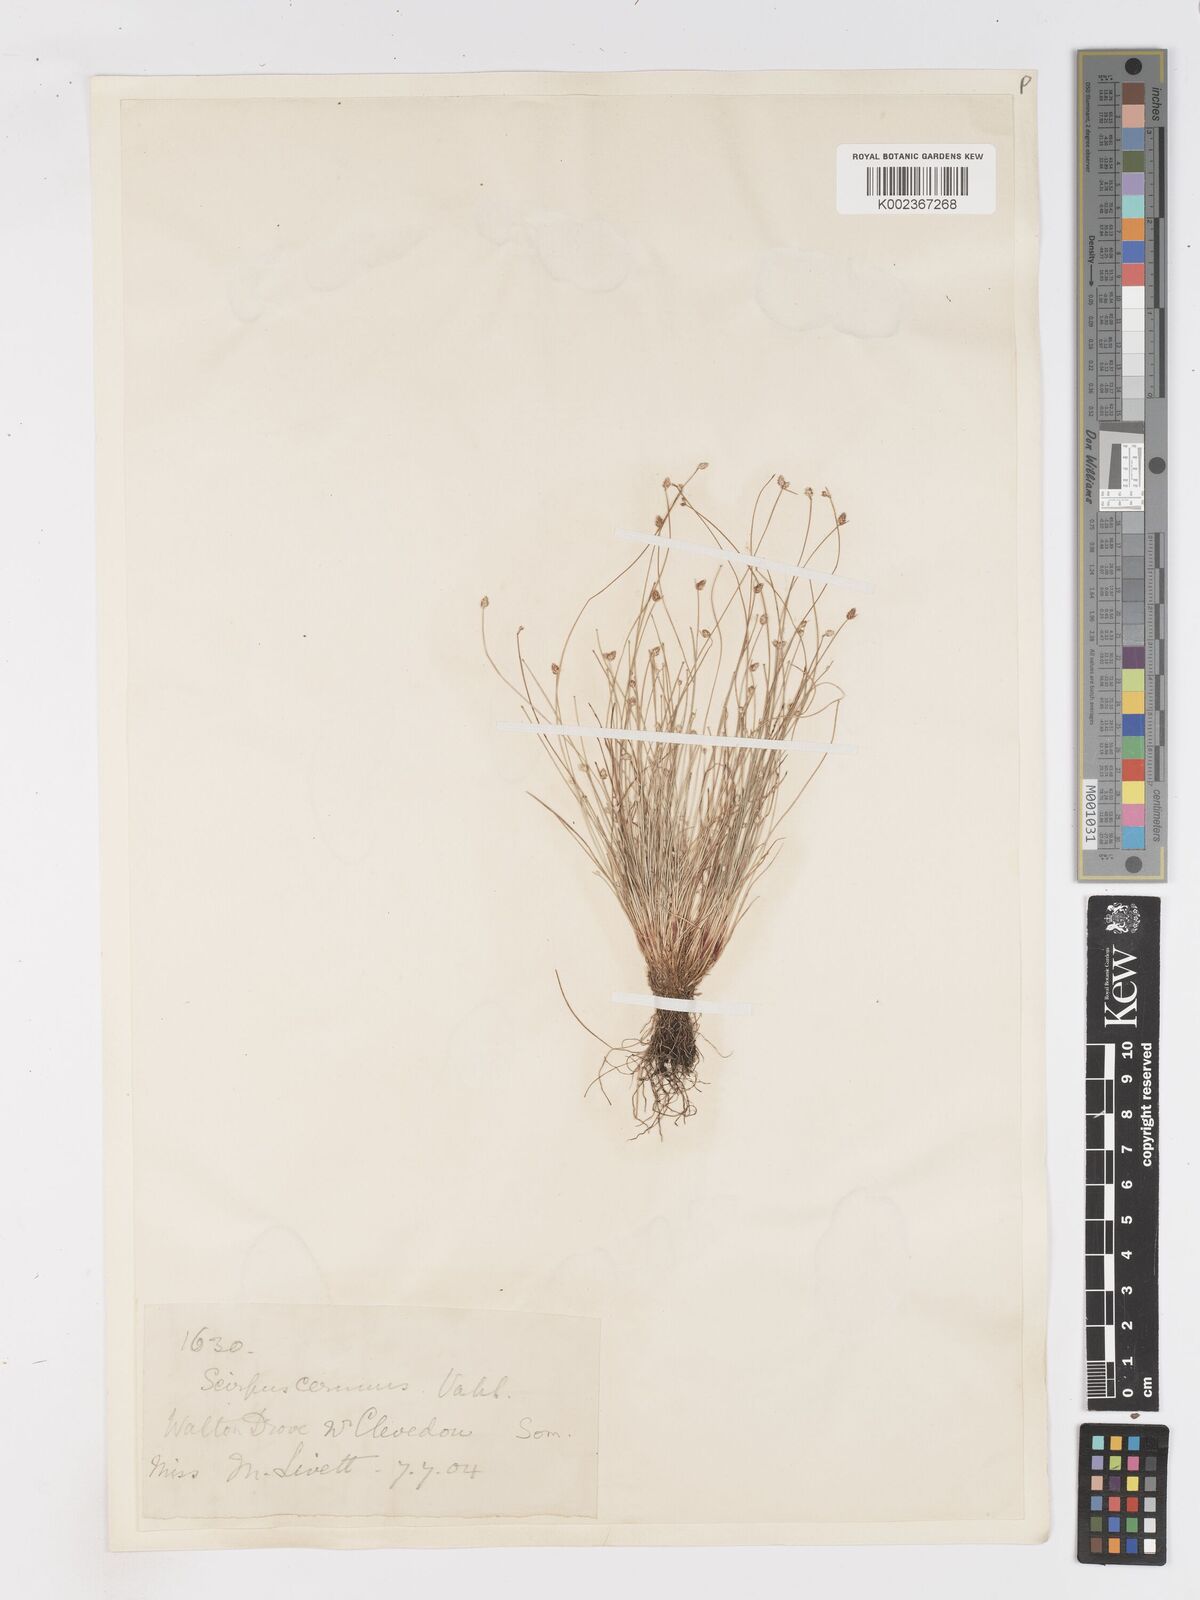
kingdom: Plantae
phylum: Tracheophyta
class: Liliopsida
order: Poales
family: Cyperaceae
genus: Isolepis
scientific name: Isolepis cernua
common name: Slender club-rush
